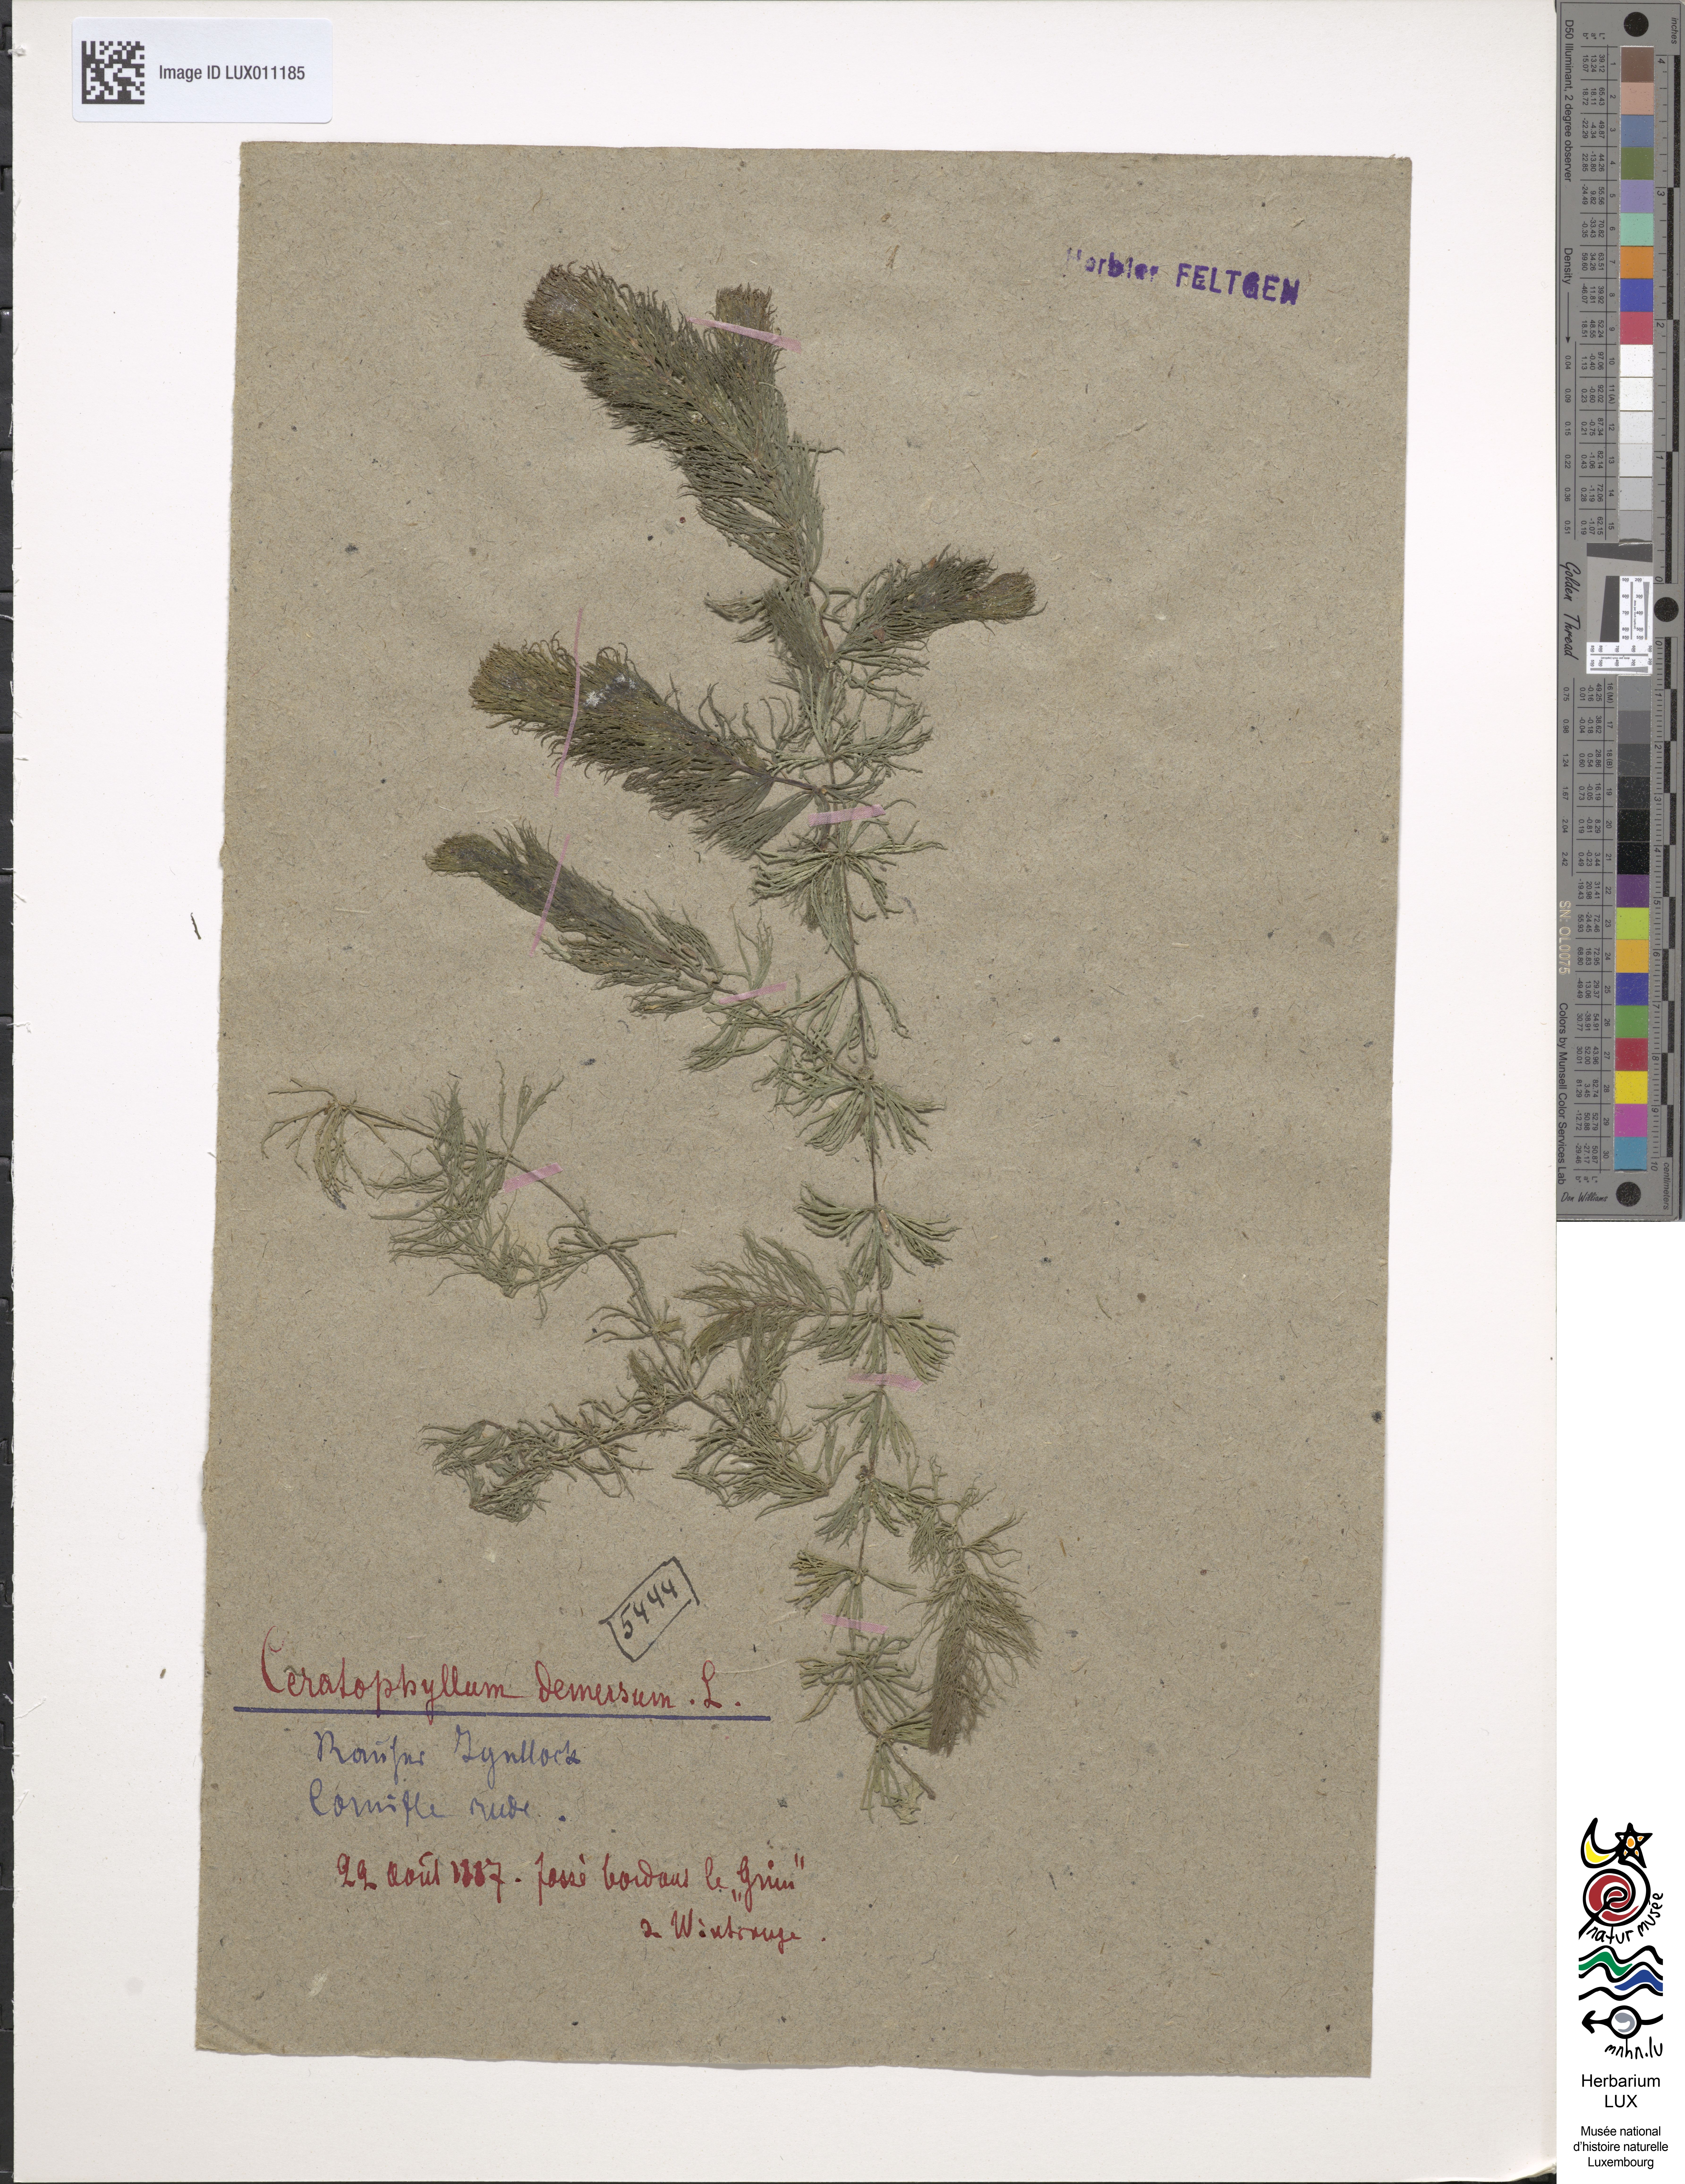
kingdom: Plantae
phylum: Tracheophyta
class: Magnoliopsida
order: Ceratophyllales
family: Ceratophyllaceae
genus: Ceratophyllum
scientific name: Ceratophyllum demersum
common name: Rigid hornwort
